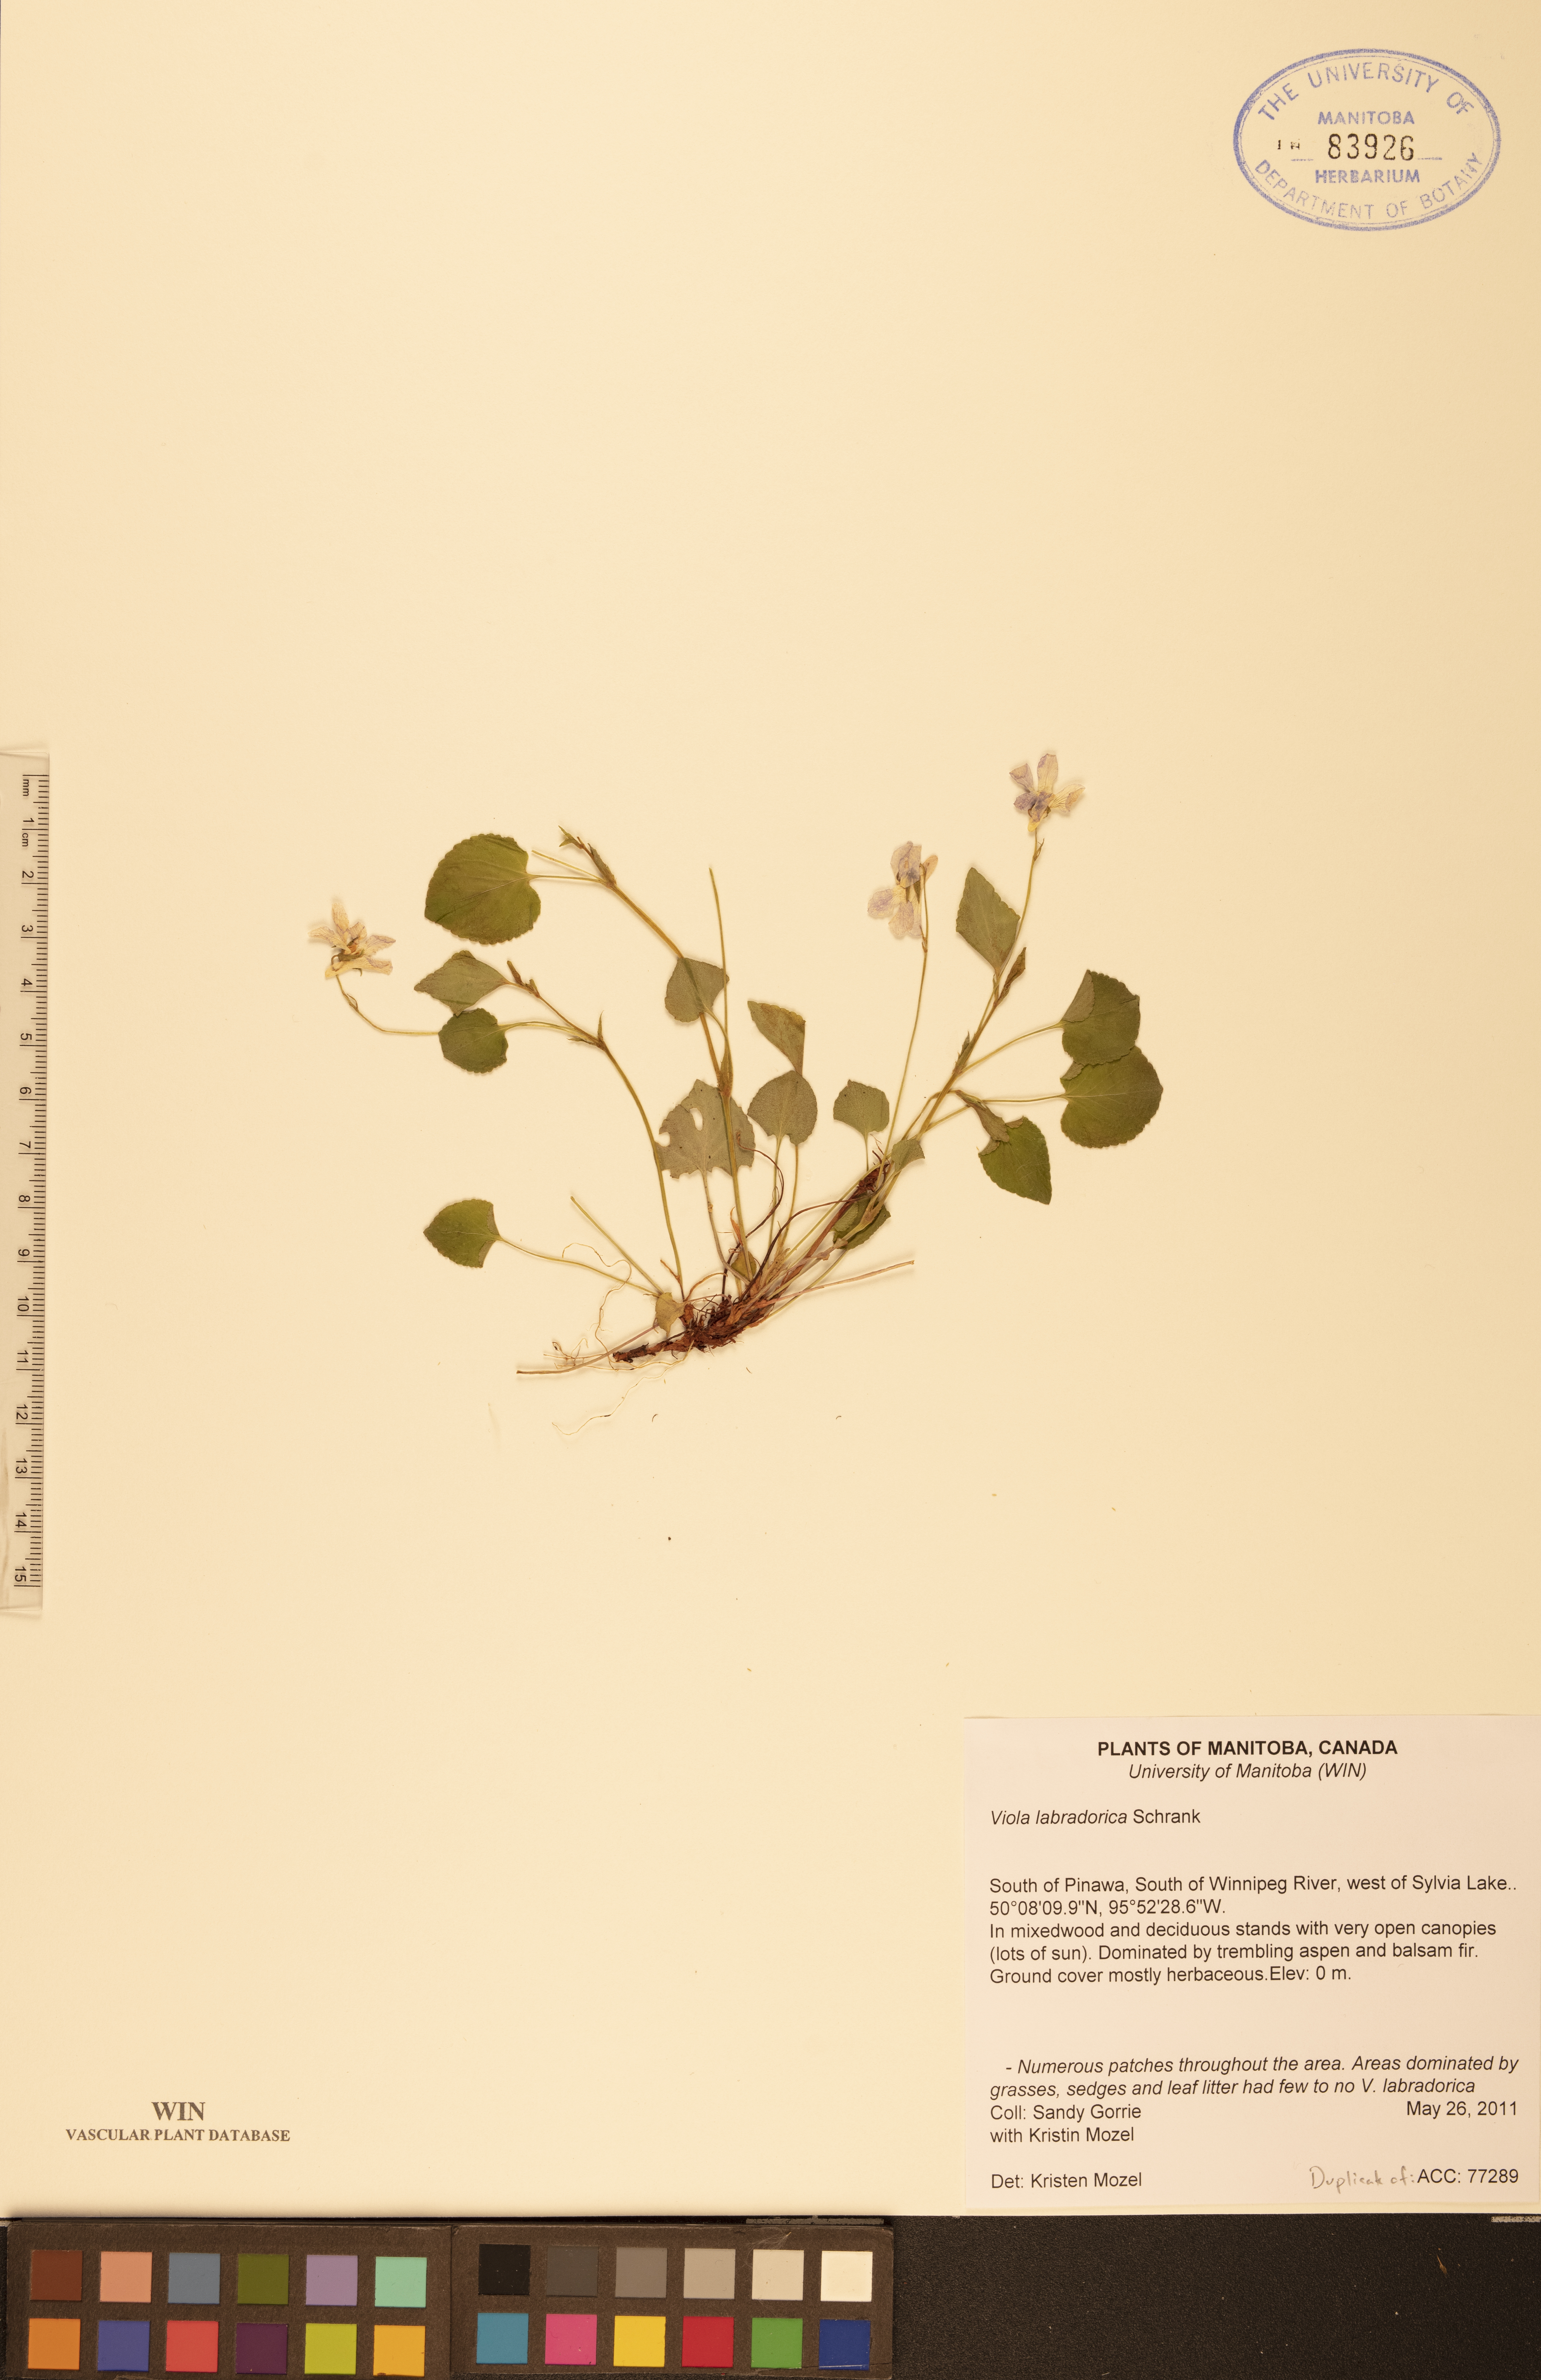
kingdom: Plantae
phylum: Tracheophyta
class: Magnoliopsida
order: Malpighiales
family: Violaceae
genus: Viola
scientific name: Viola labradorica
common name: Labrador violet
